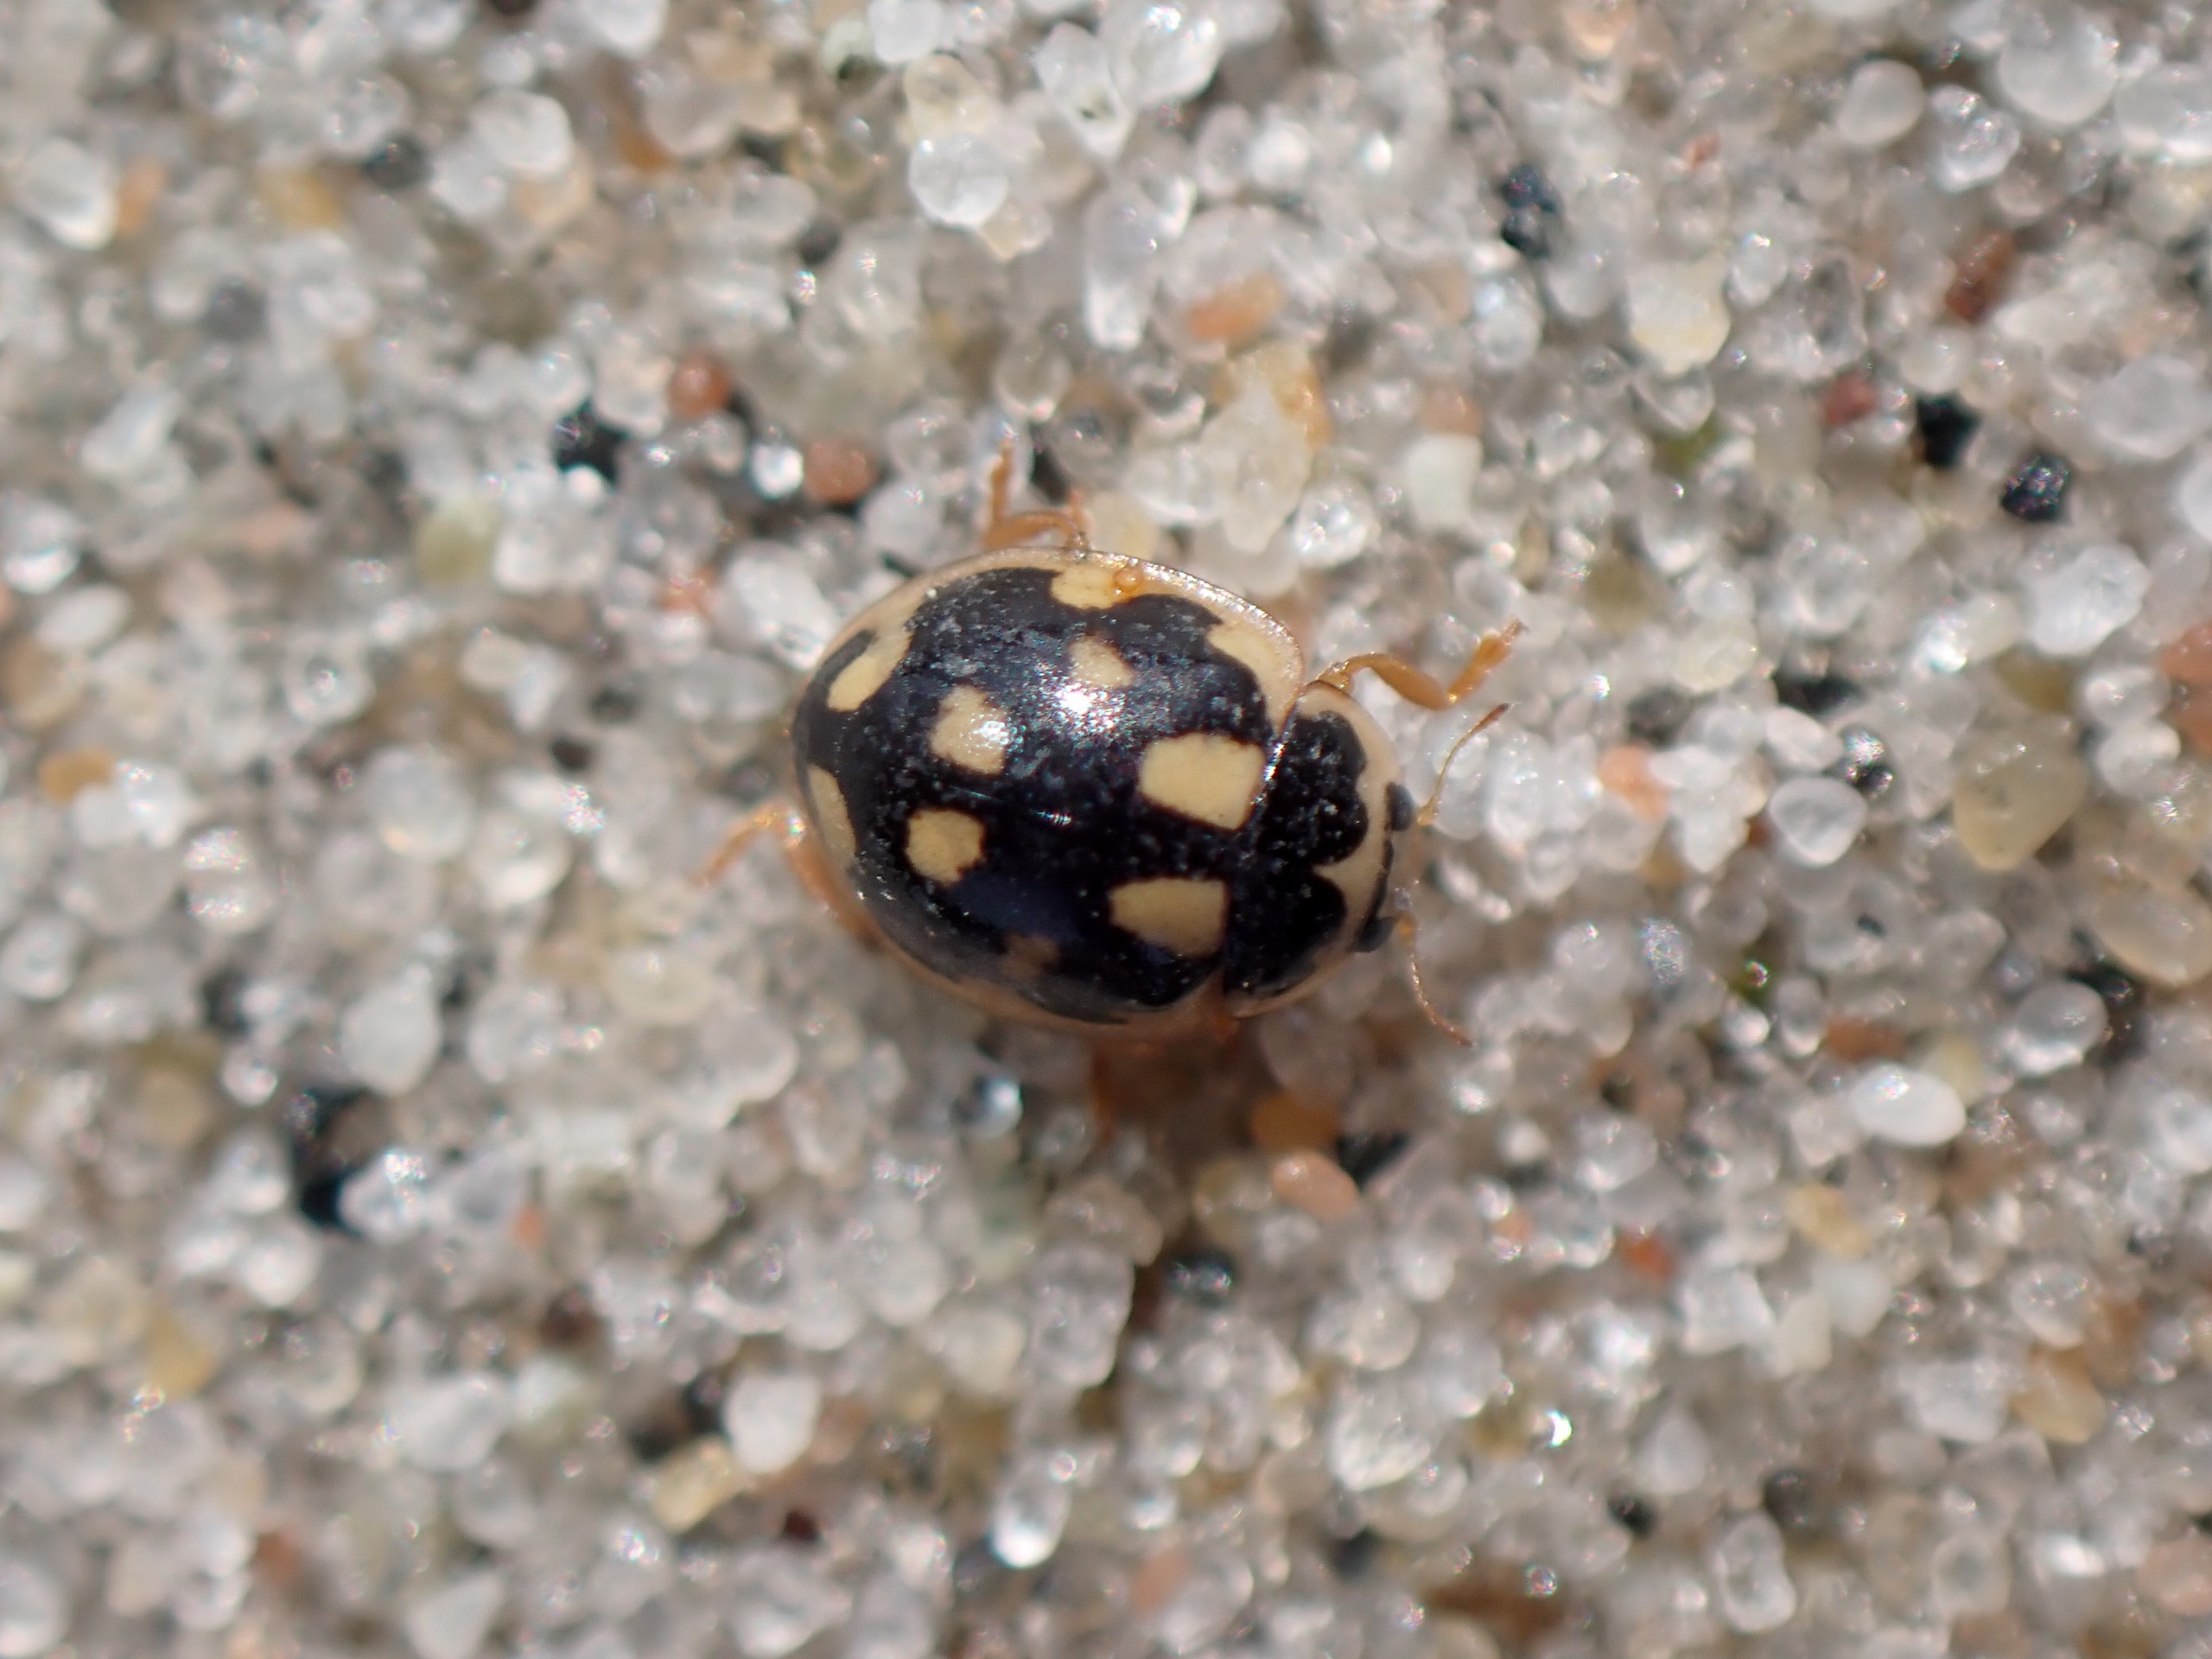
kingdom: Animalia
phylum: Arthropoda
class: Insecta
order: Coleoptera
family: Coccinellidae
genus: Propylaea
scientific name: Propylaea quatuordecimpunctata
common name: Skakbræt
